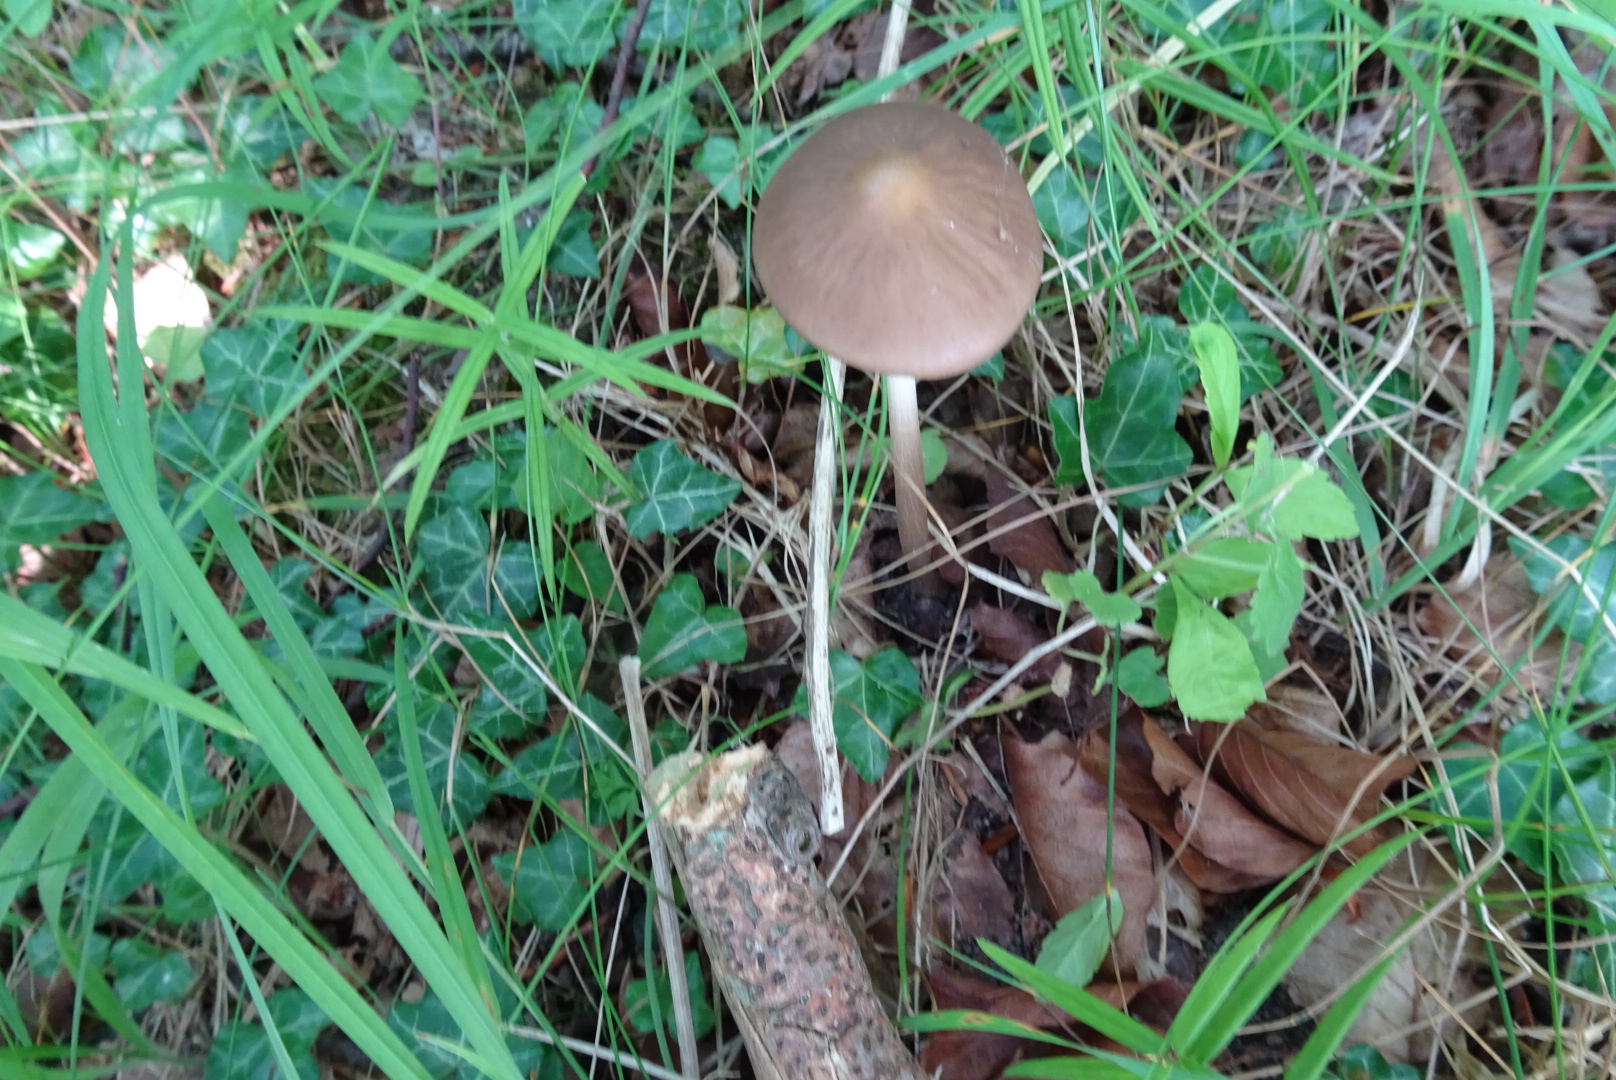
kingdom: Fungi
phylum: Basidiomycota
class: Agaricomycetes
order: Agaricales
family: Physalacriaceae
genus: Hymenopellis
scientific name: Hymenopellis radicata
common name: almindelig pælerodshat
